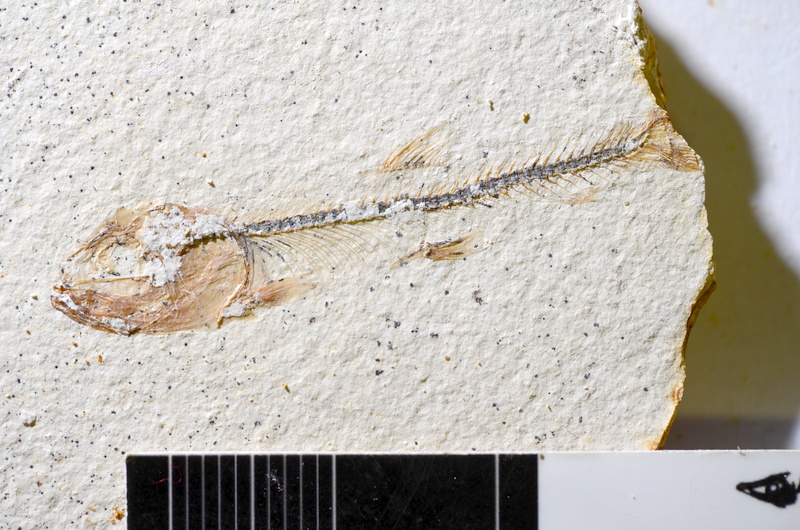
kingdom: Animalia
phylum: Chordata
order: Salmoniformes
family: Orthogonikleithridae
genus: Orthogonikleithrus
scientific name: Orthogonikleithrus hoelli
